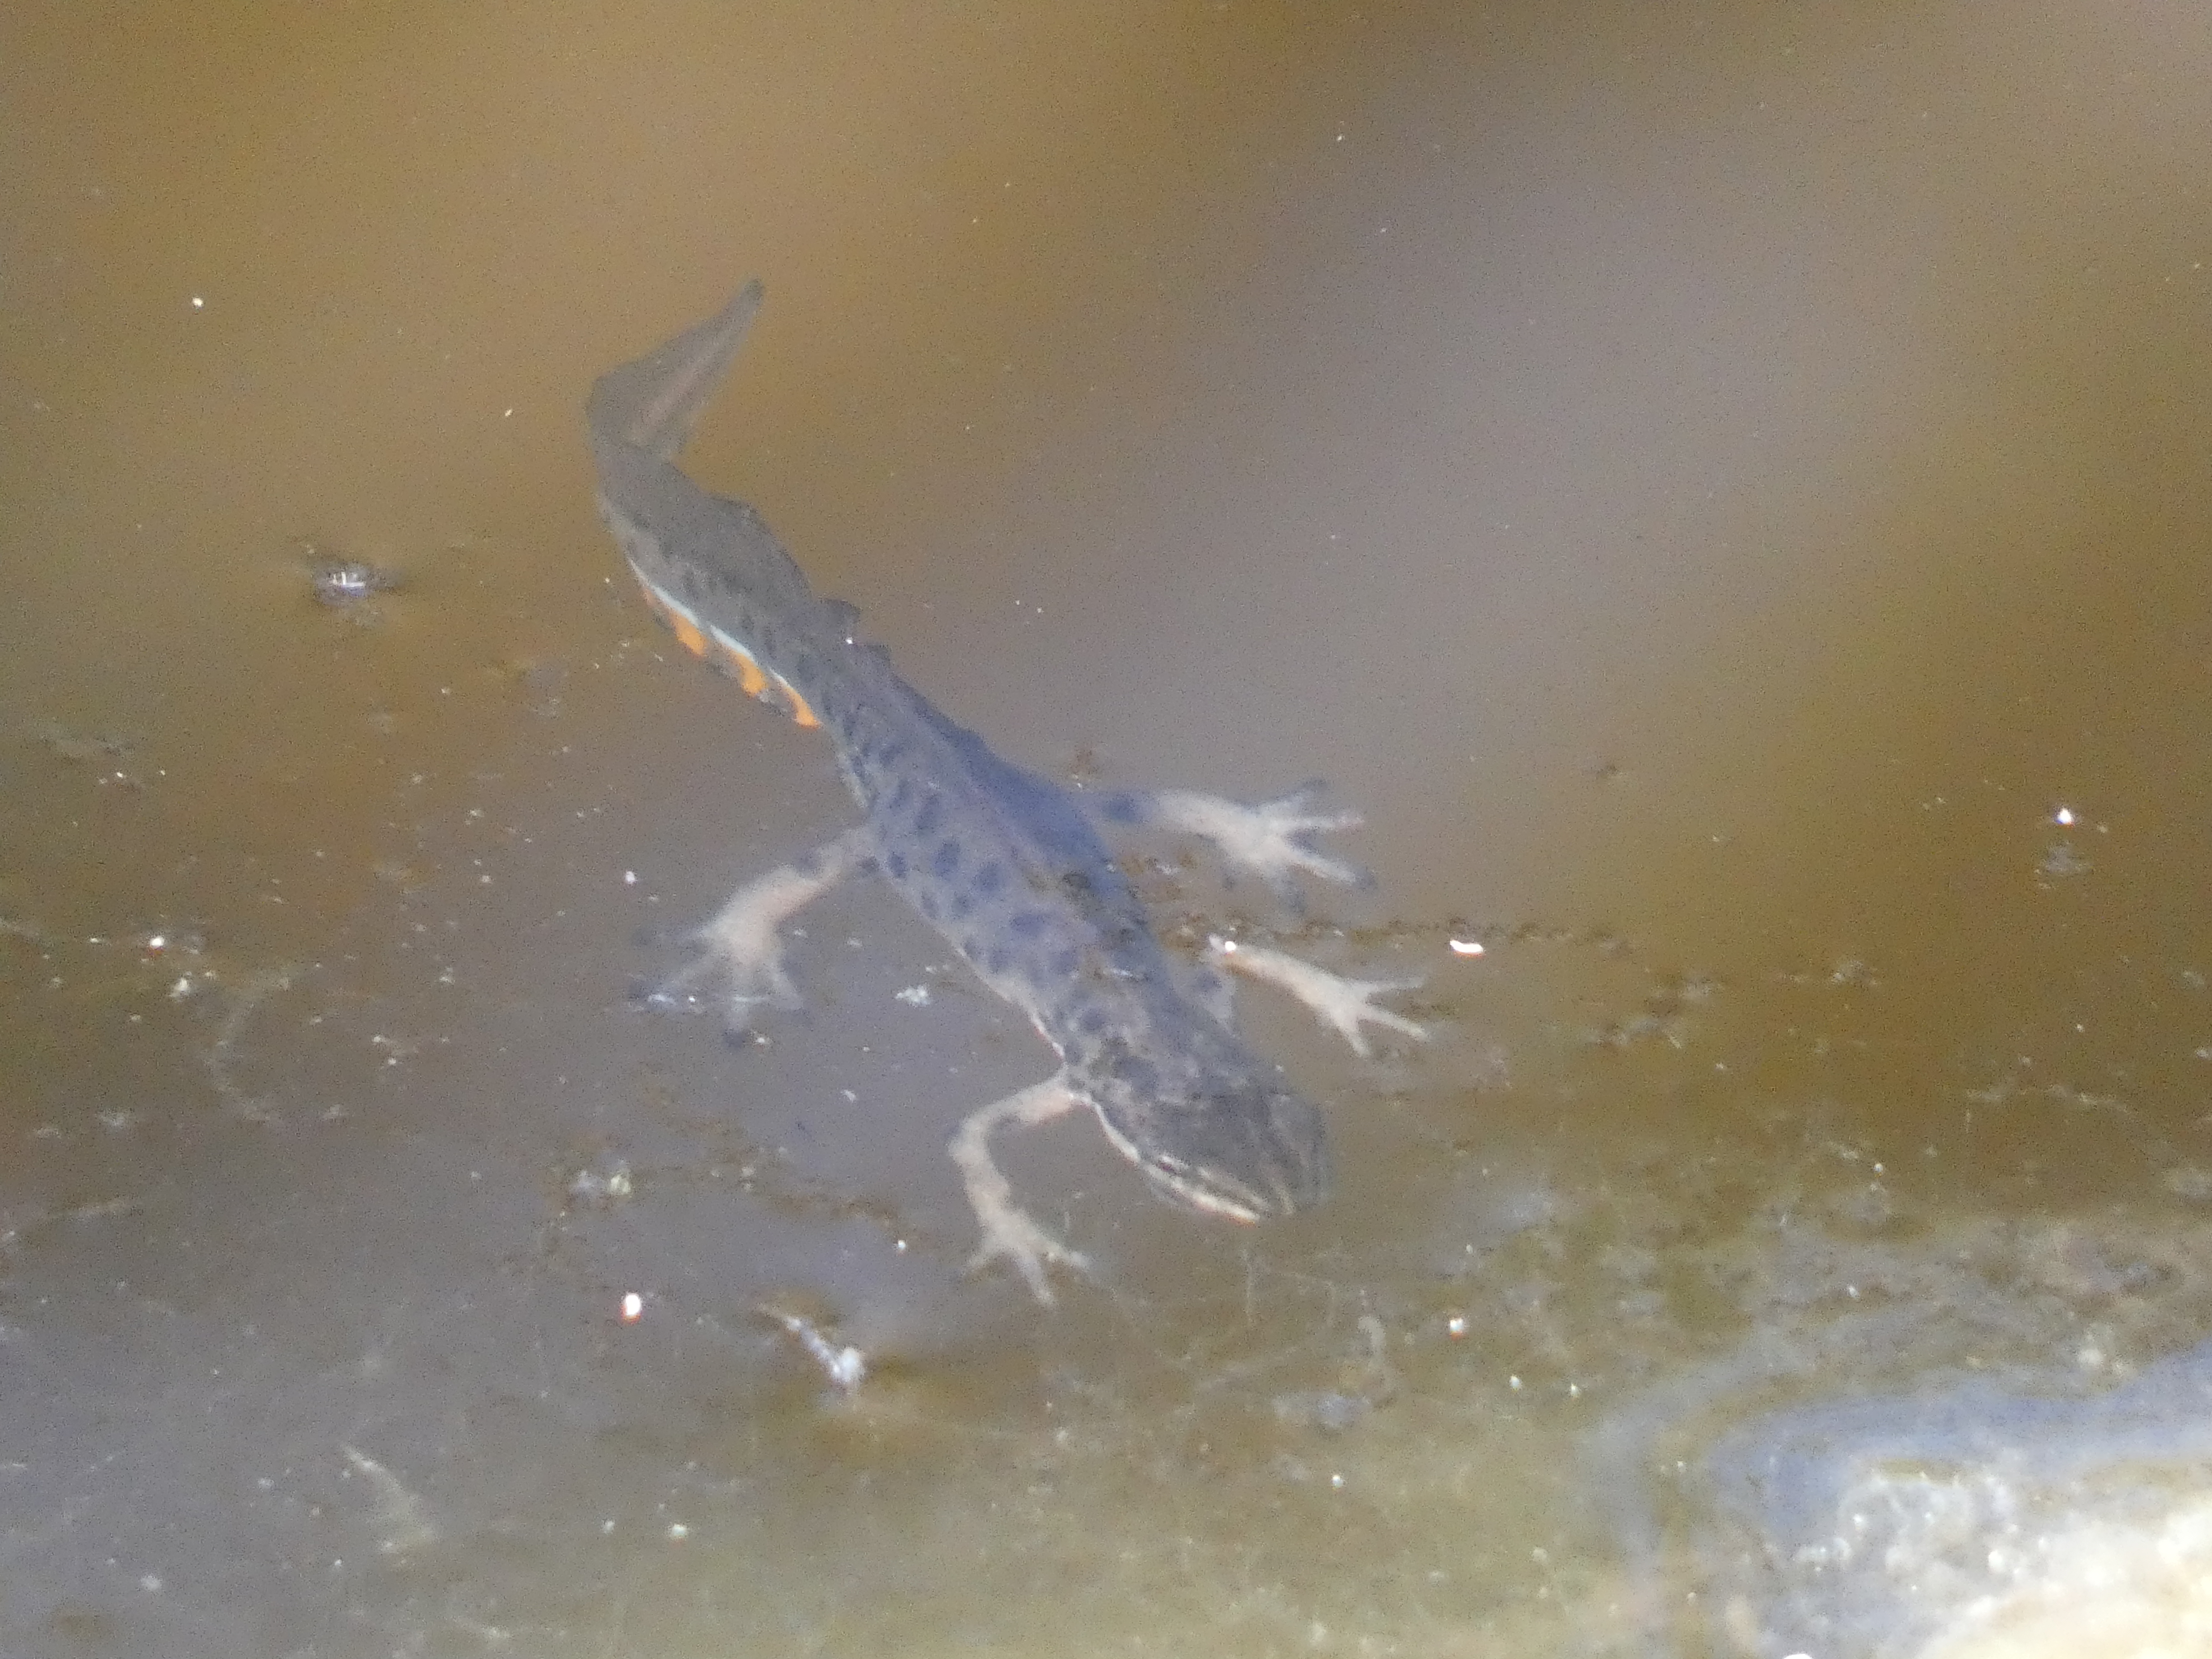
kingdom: Animalia
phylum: Chordata
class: Amphibia
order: Caudata
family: Salamandridae
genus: Lissotriton
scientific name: Lissotriton vulgaris
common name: Lille vandsalamander
